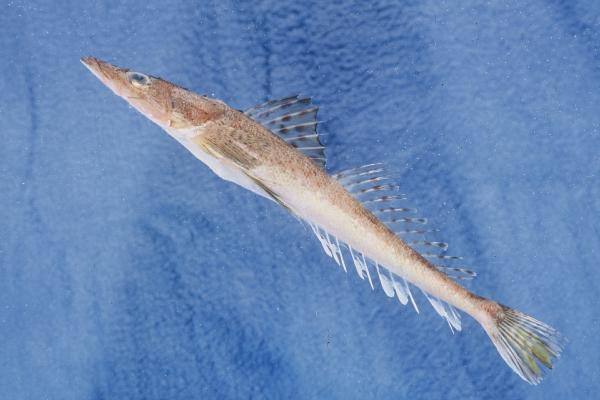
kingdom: Animalia
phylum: Chordata
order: Scorpaeniformes
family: Platycephalidae
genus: Cociella
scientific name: Cociella heemstrai
